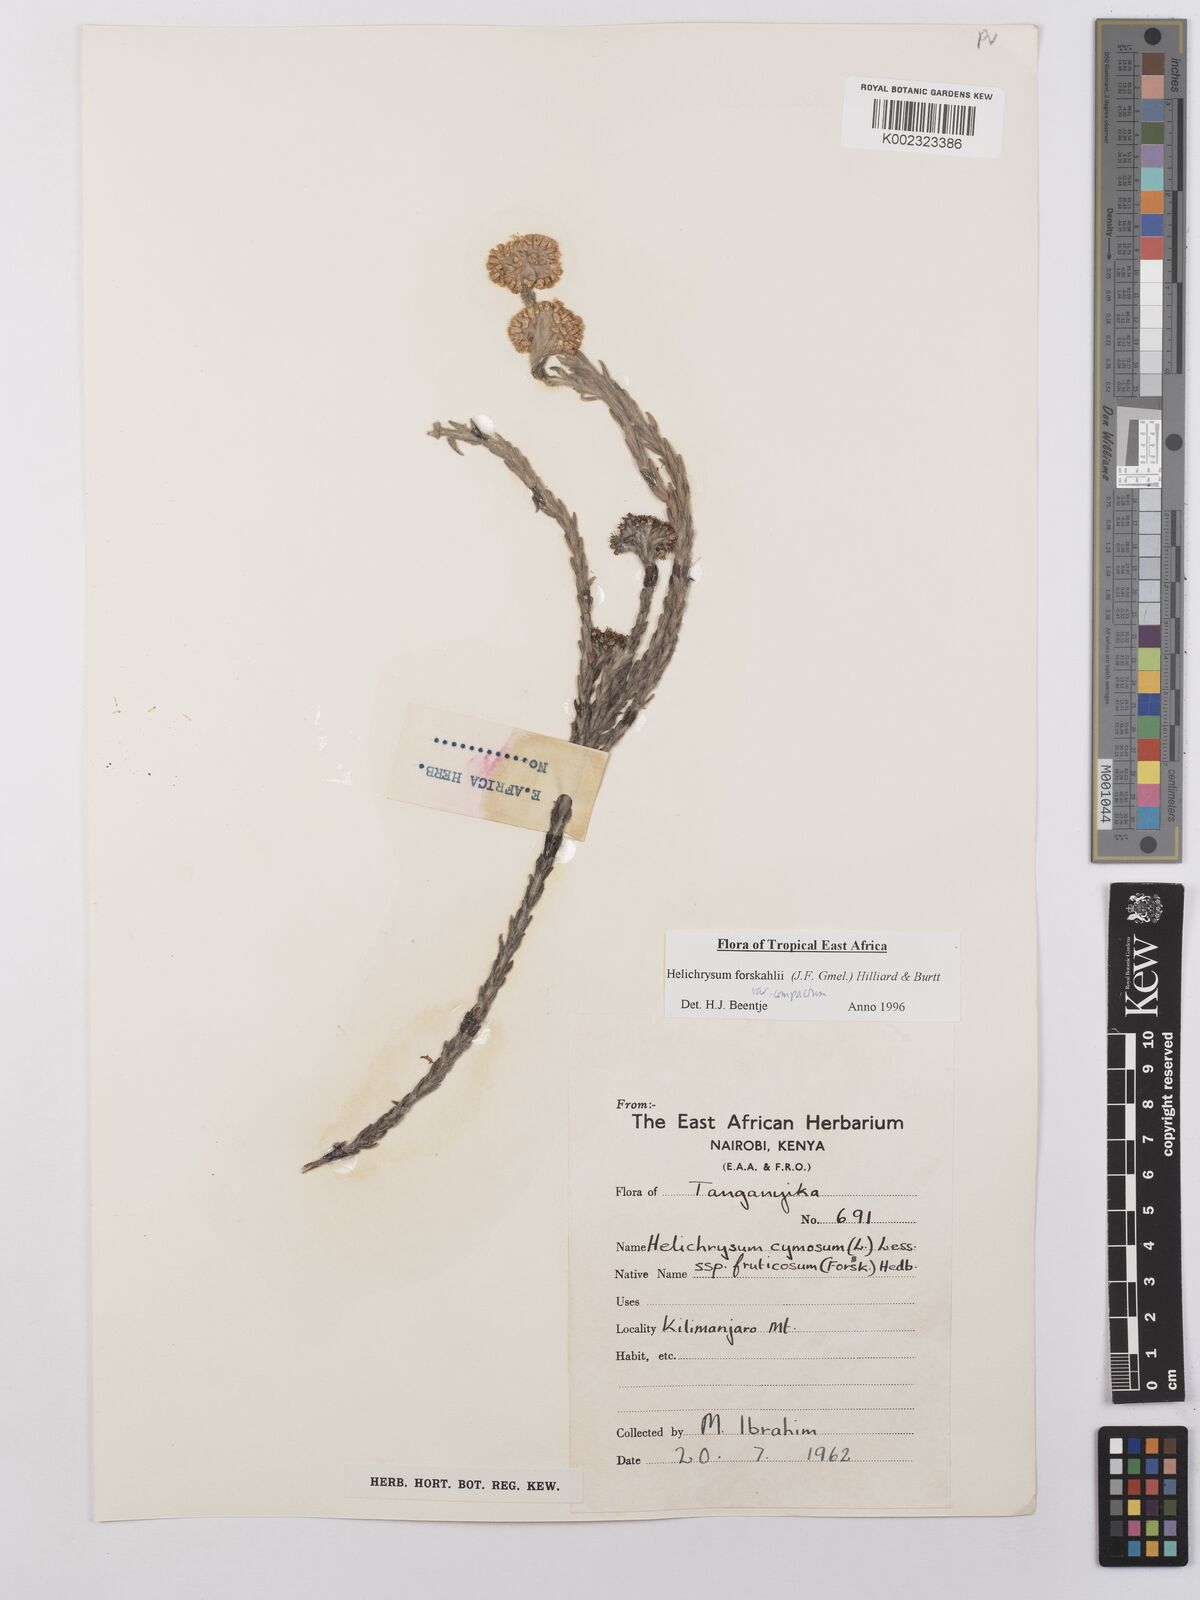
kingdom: Plantae
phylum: Tracheophyta
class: Magnoliopsida
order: Asterales
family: Asteraceae
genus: Helichrysum
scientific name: Helichrysum forskahlii
